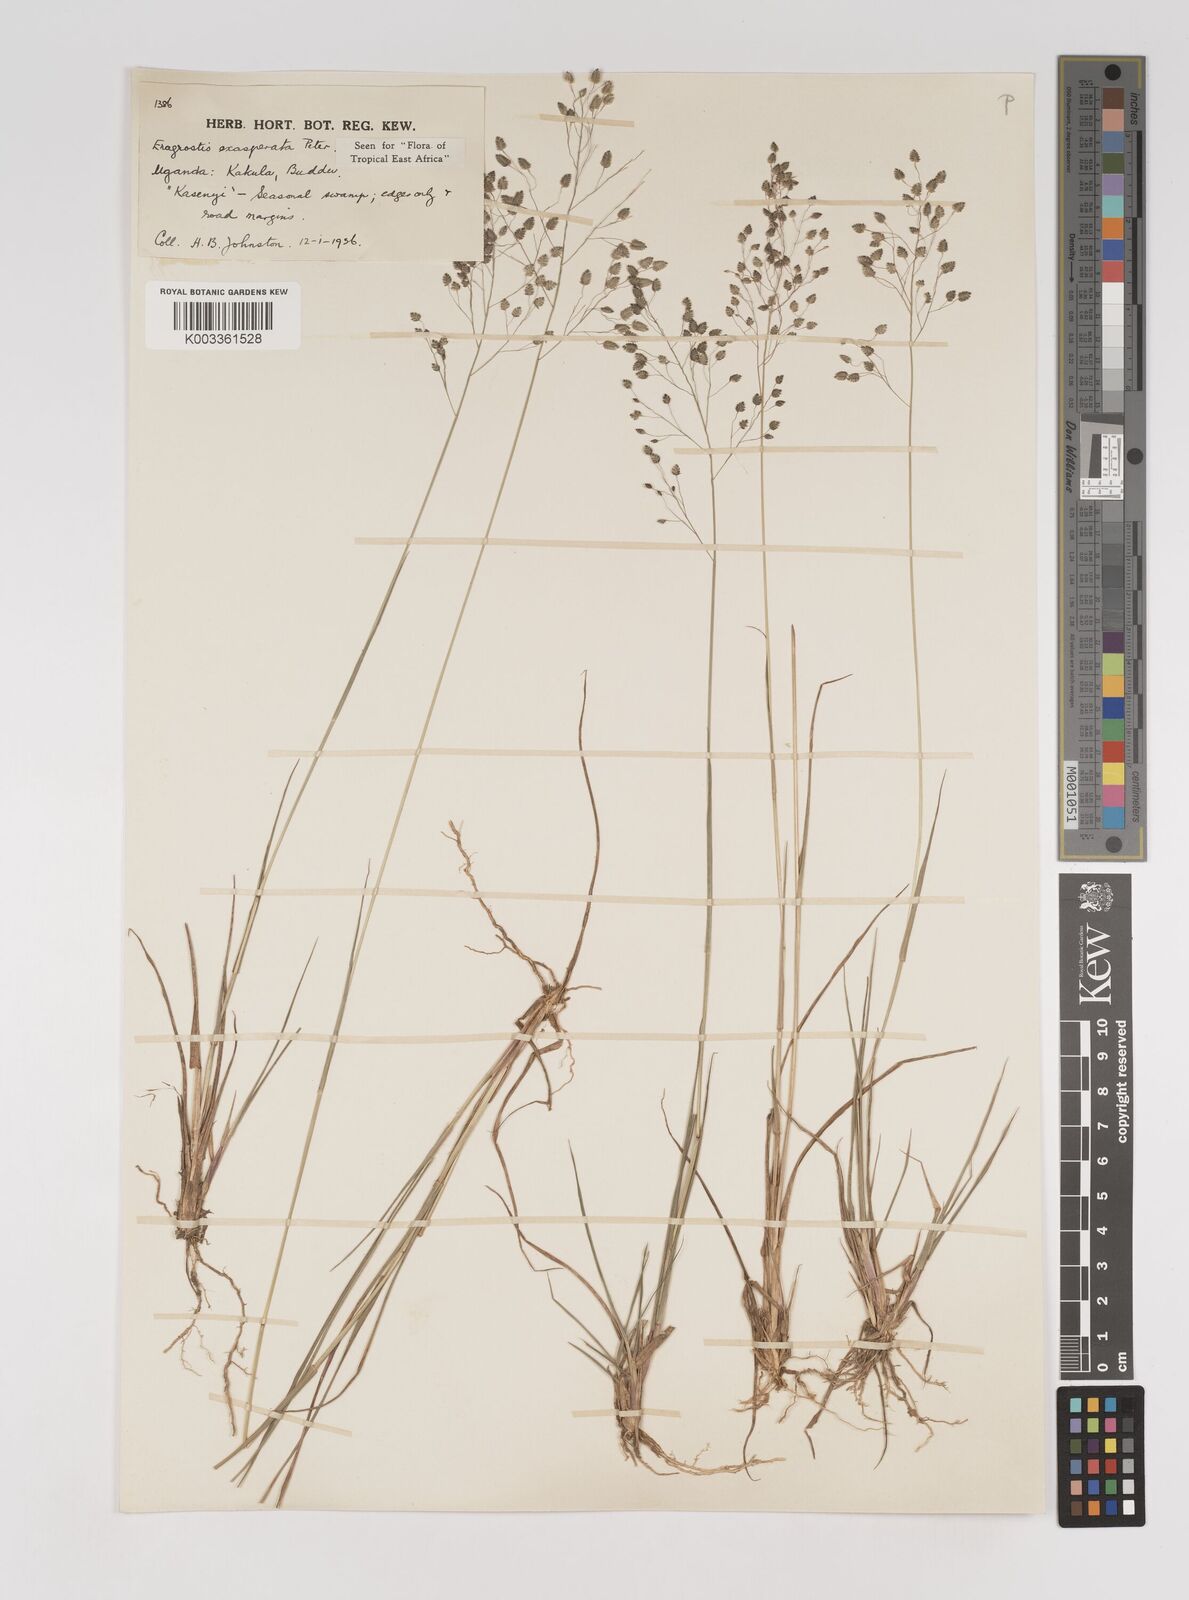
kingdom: Plantae
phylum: Tracheophyta
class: Liliopsida
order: Poales
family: Poaceae
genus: Eragrostis
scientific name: Eragrostis exasperata
